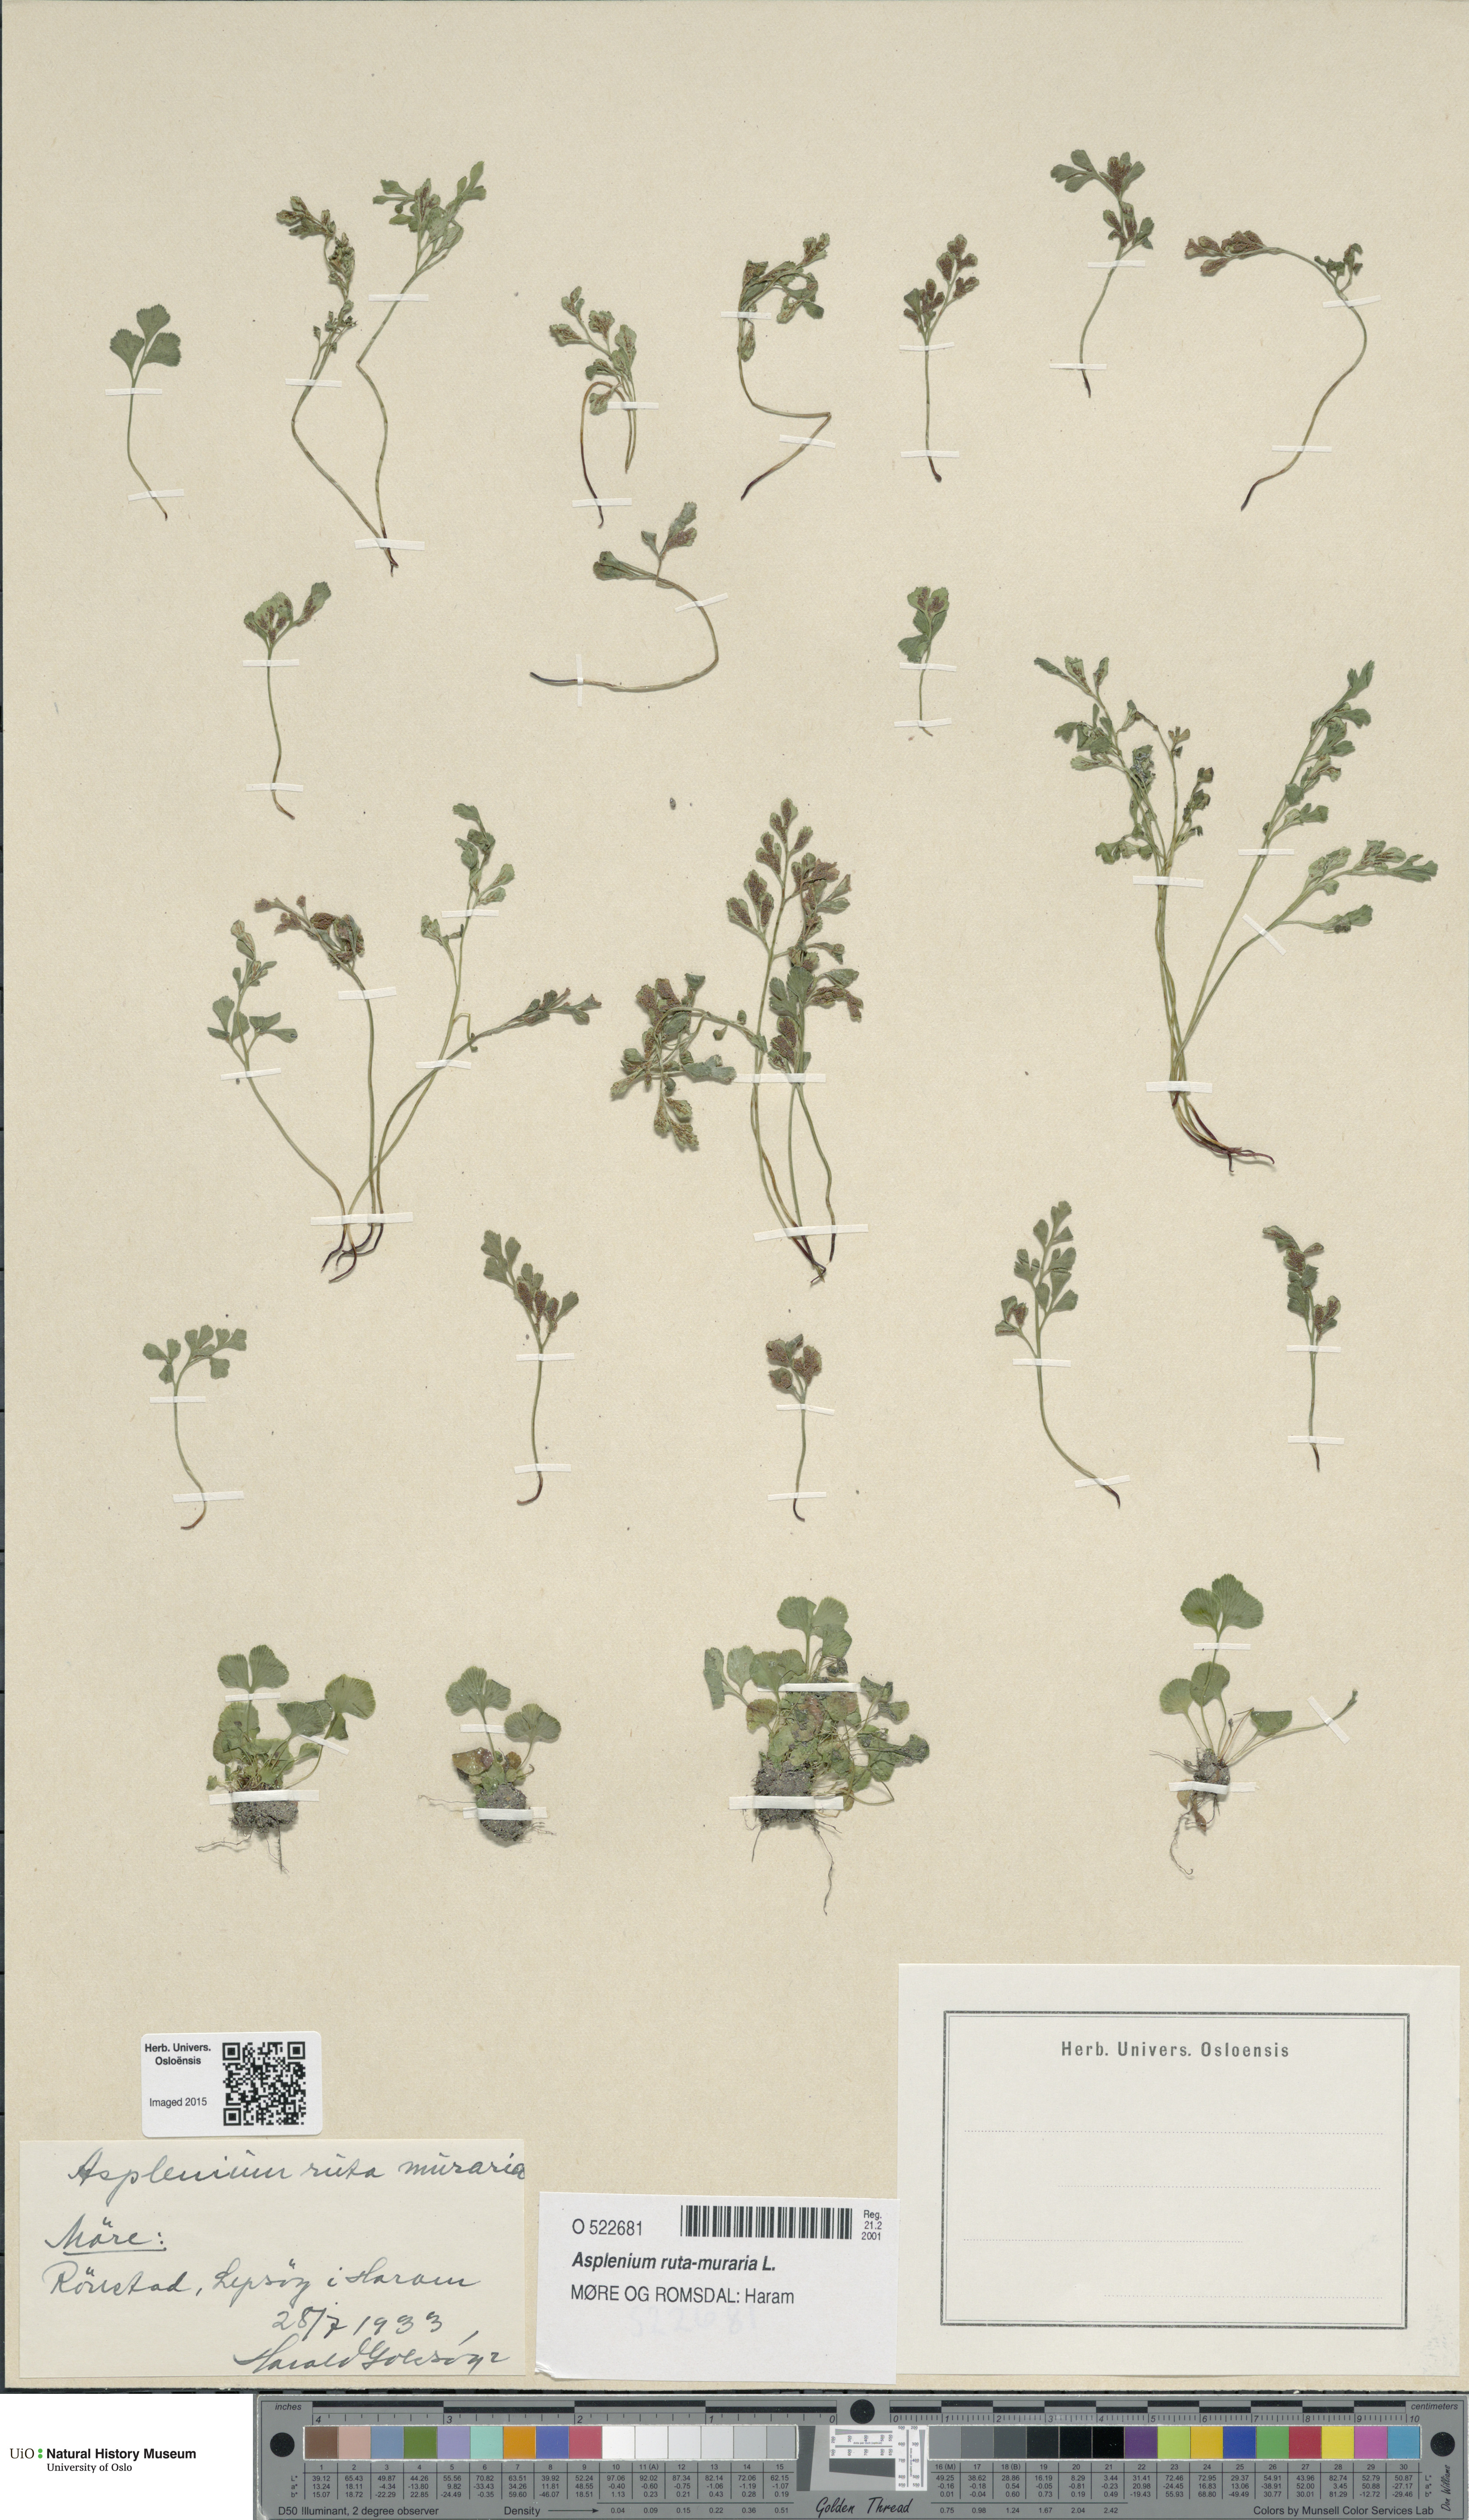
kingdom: Plantae
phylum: Tracheophyta
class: Polypodiopsida
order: Polypodiales
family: Aspleniaceae
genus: Asplenium
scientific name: Asplenium ruta-muraria
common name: Wall-rue
